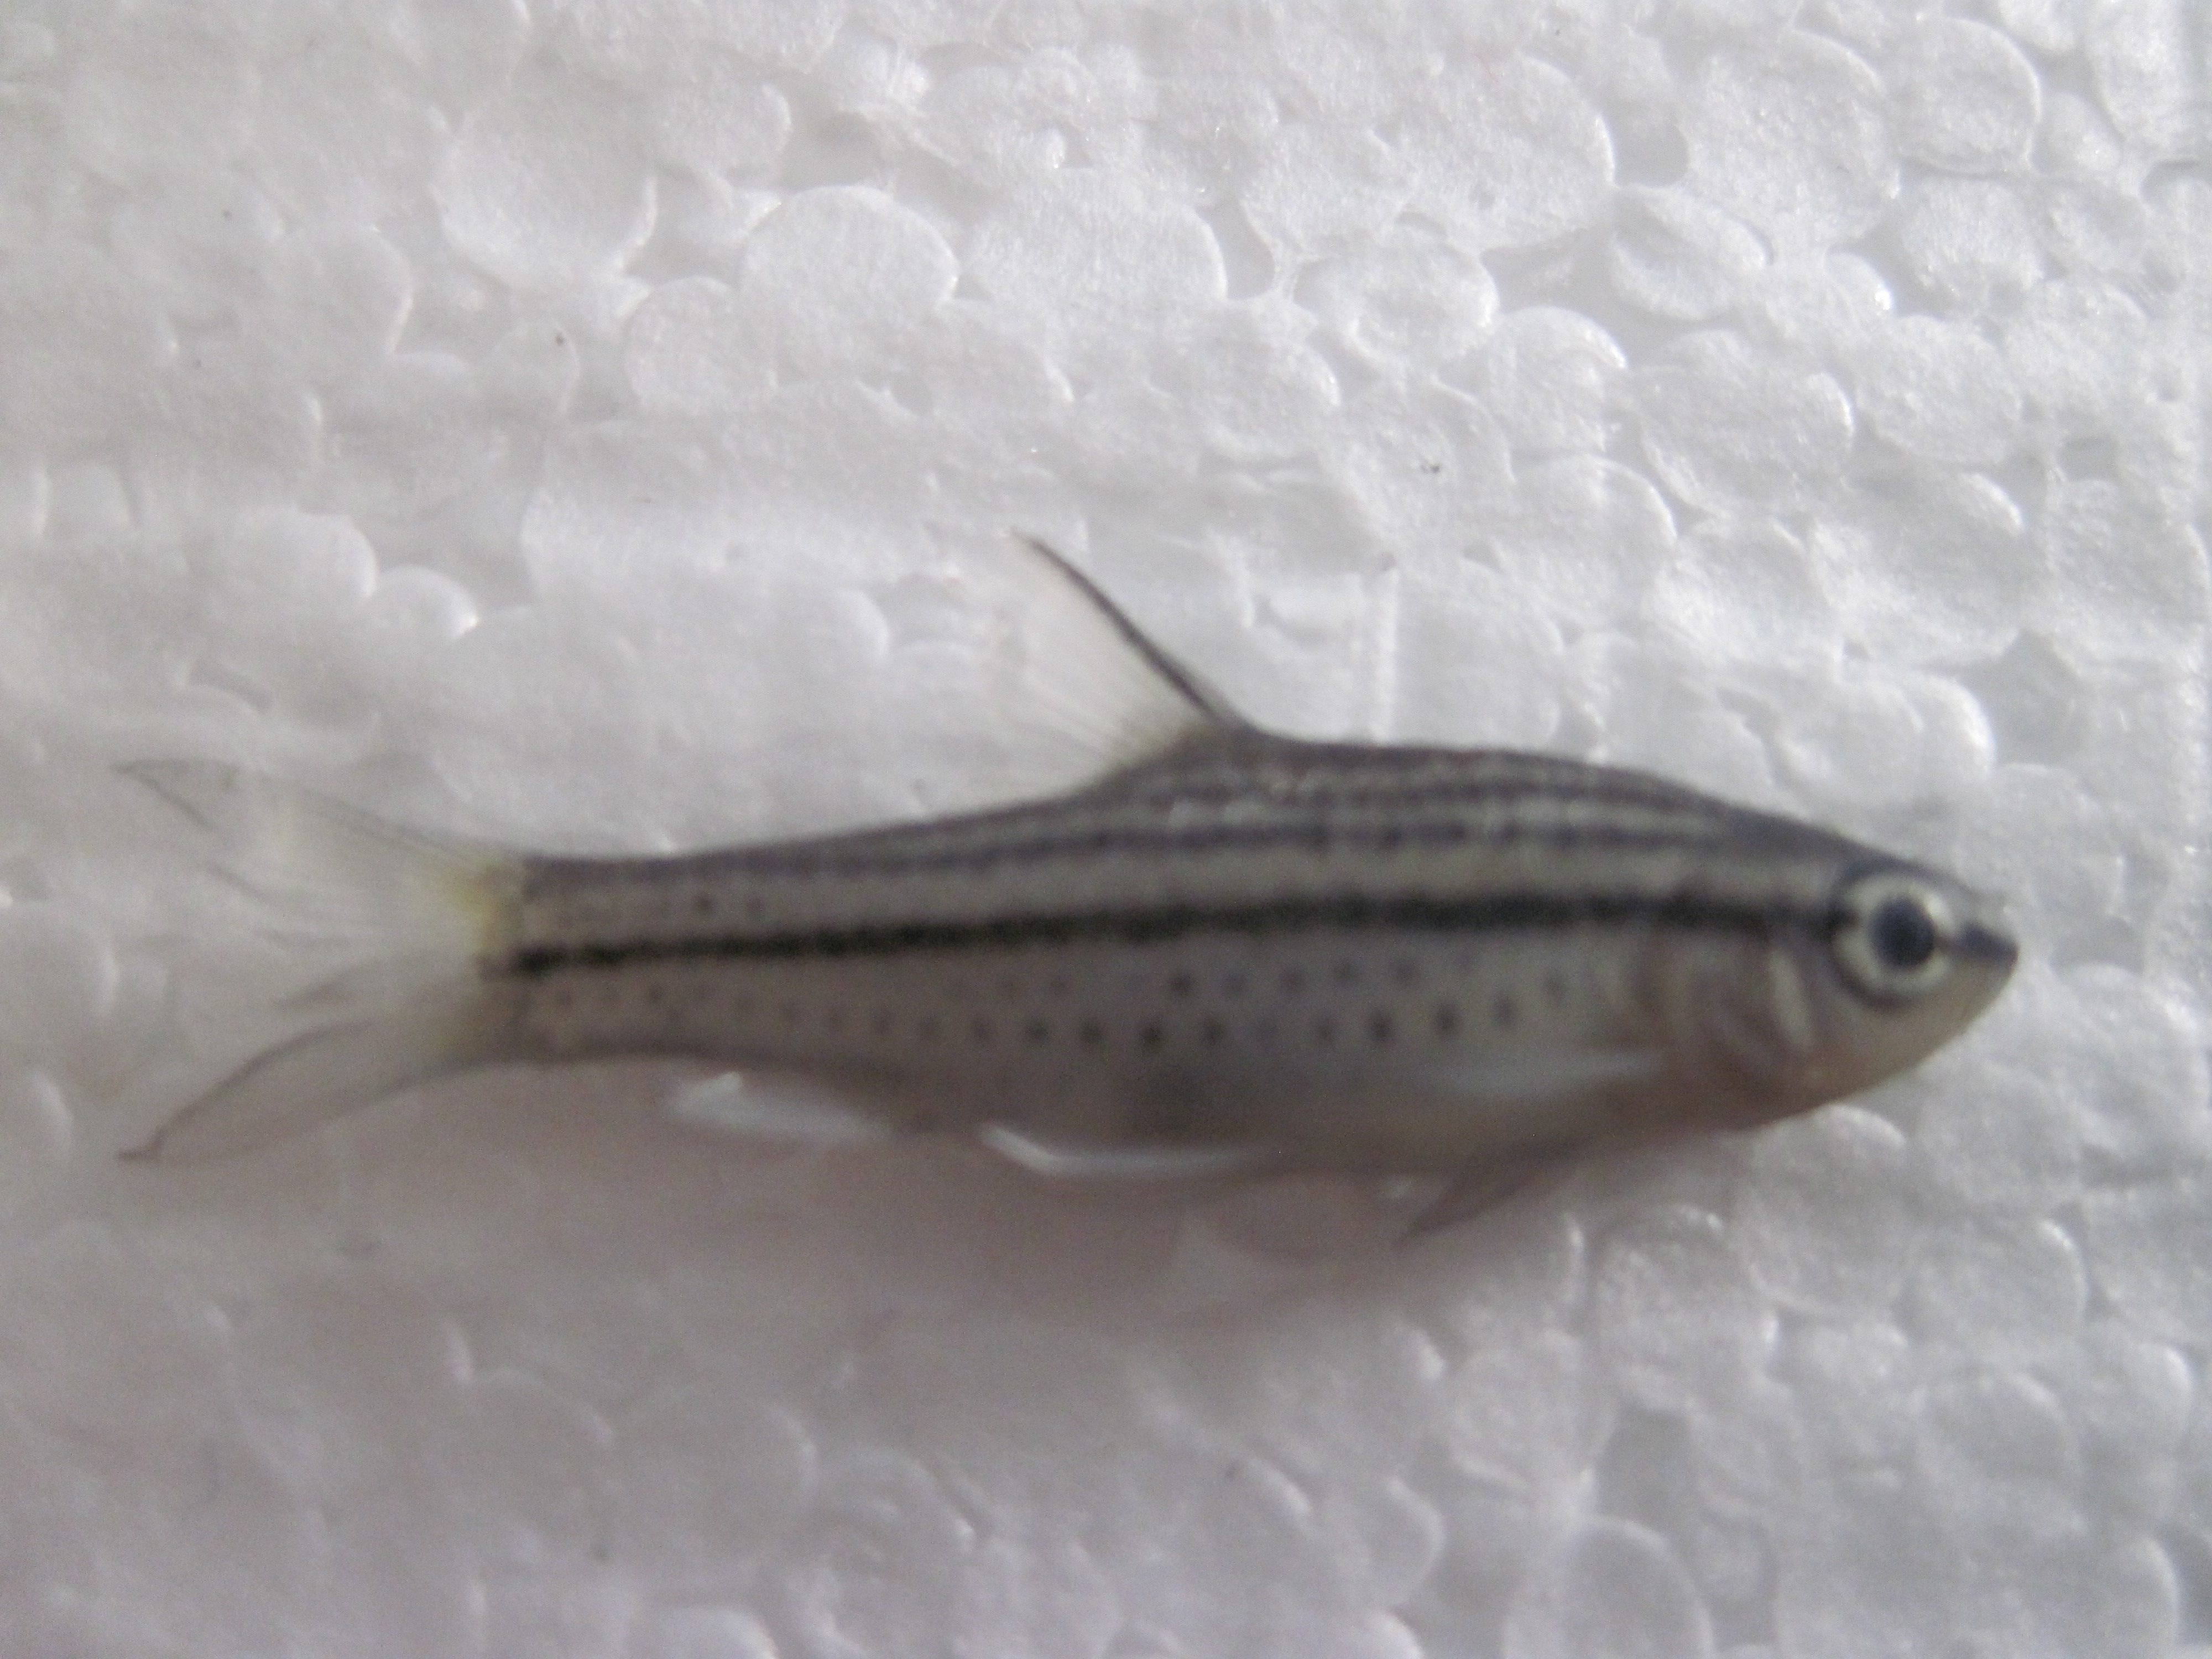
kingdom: Animalia
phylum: Chordata
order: Cypriniformes
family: Cyprinidae
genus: Enteromius
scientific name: Enteromius multilineatus
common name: Copperstripe barb
